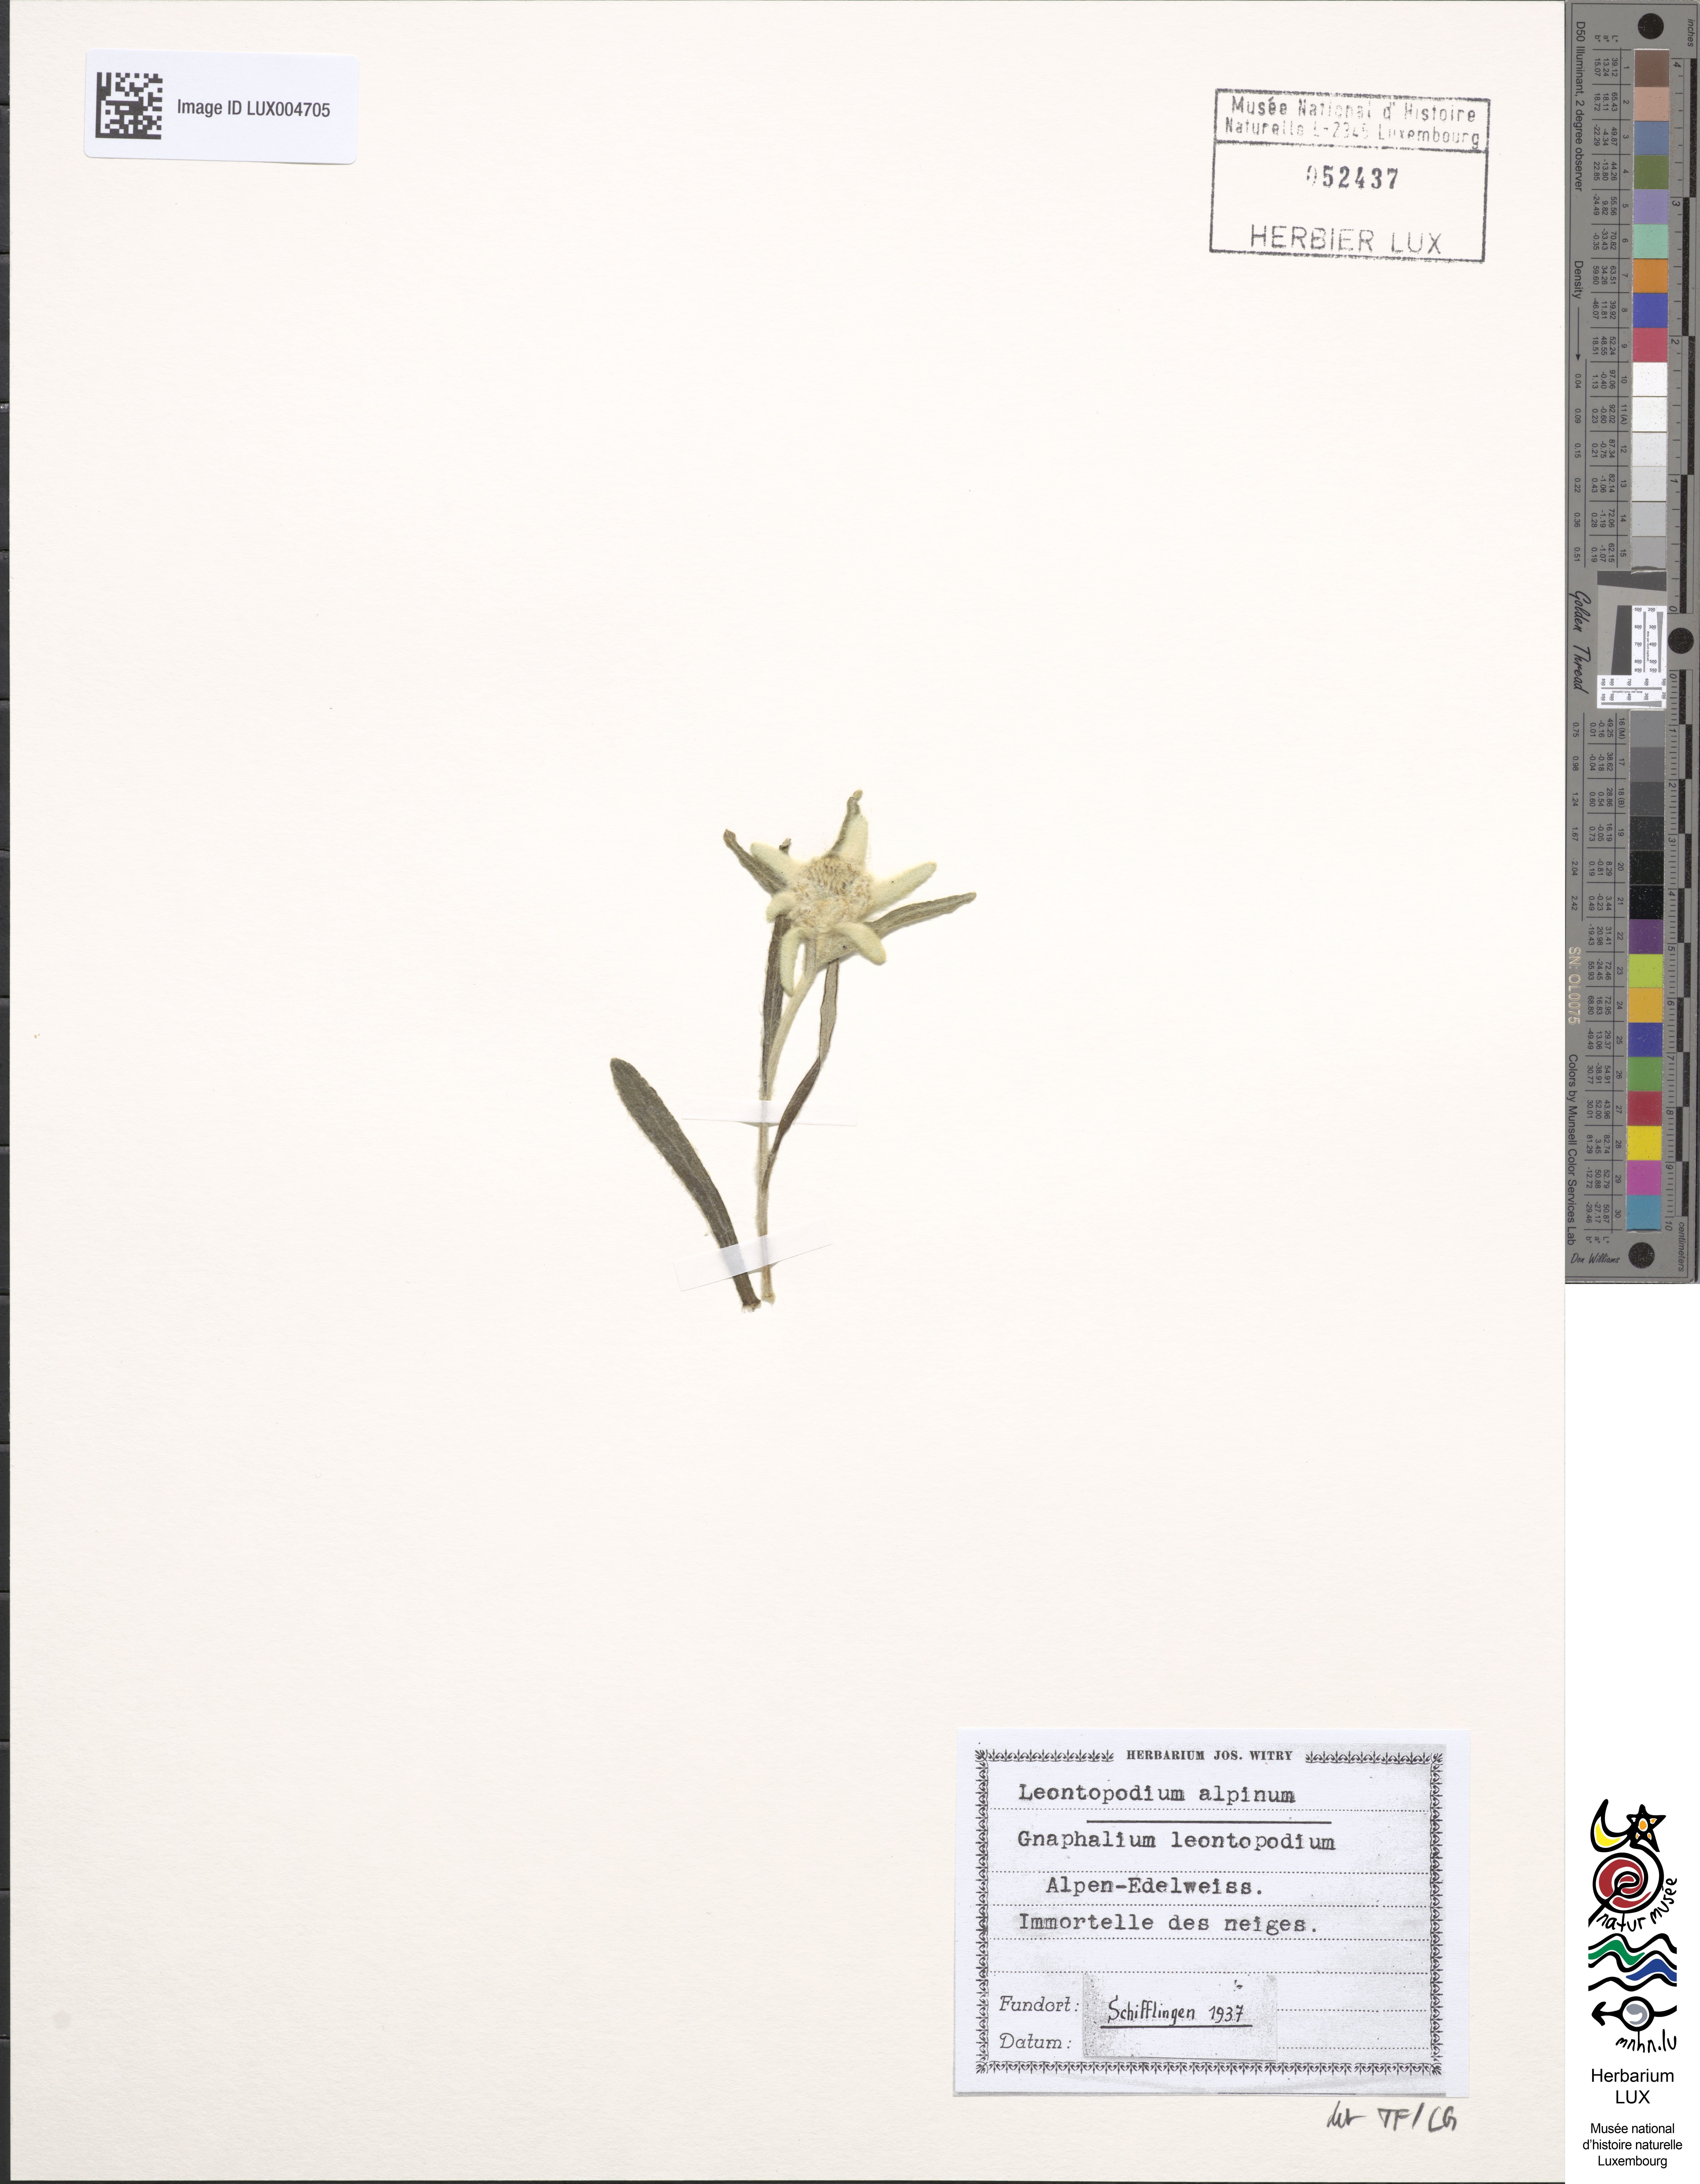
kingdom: Plantae
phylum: Tracheophyta
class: Magnoliopsida
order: Asterales
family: Asteraceae
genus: Leontopodium
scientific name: Leontopodium nivale
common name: Edelweiss
